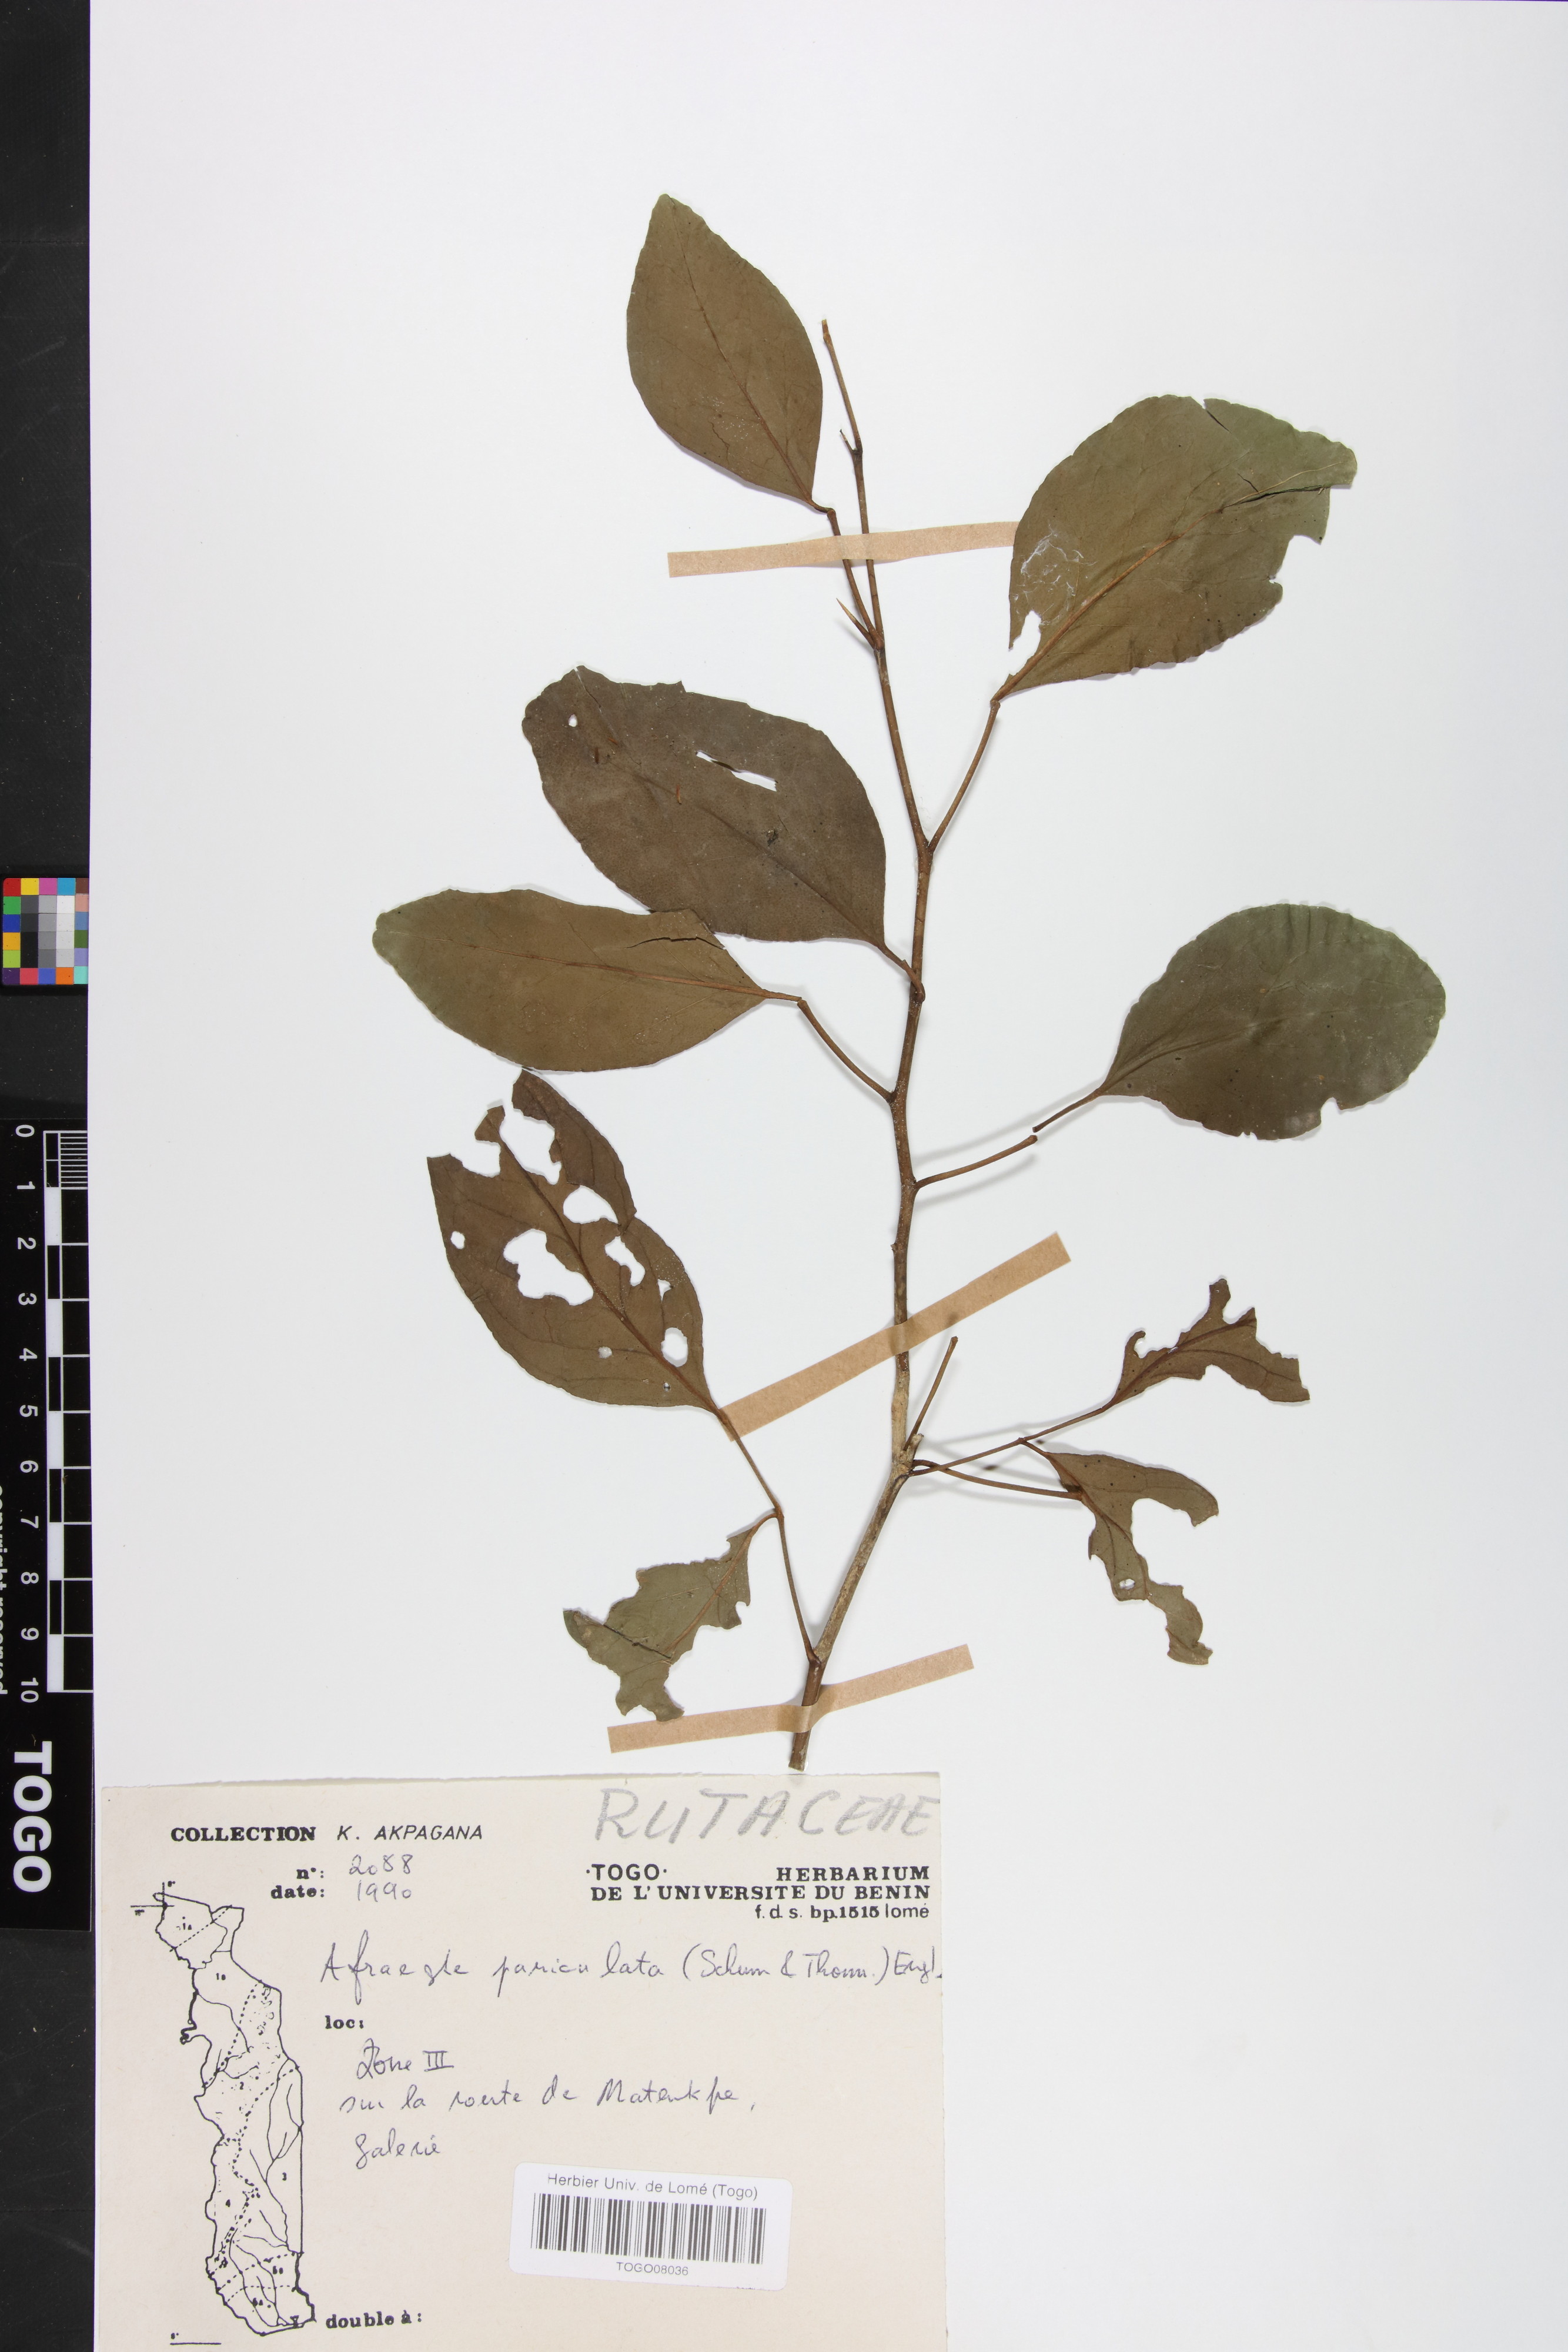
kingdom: Plantae
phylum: Tracheophyta
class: Magnoliopsida
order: Sapindales
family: Rutaceae
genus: Afraegle
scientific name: Afraegle paniculata
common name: Guin-guin
